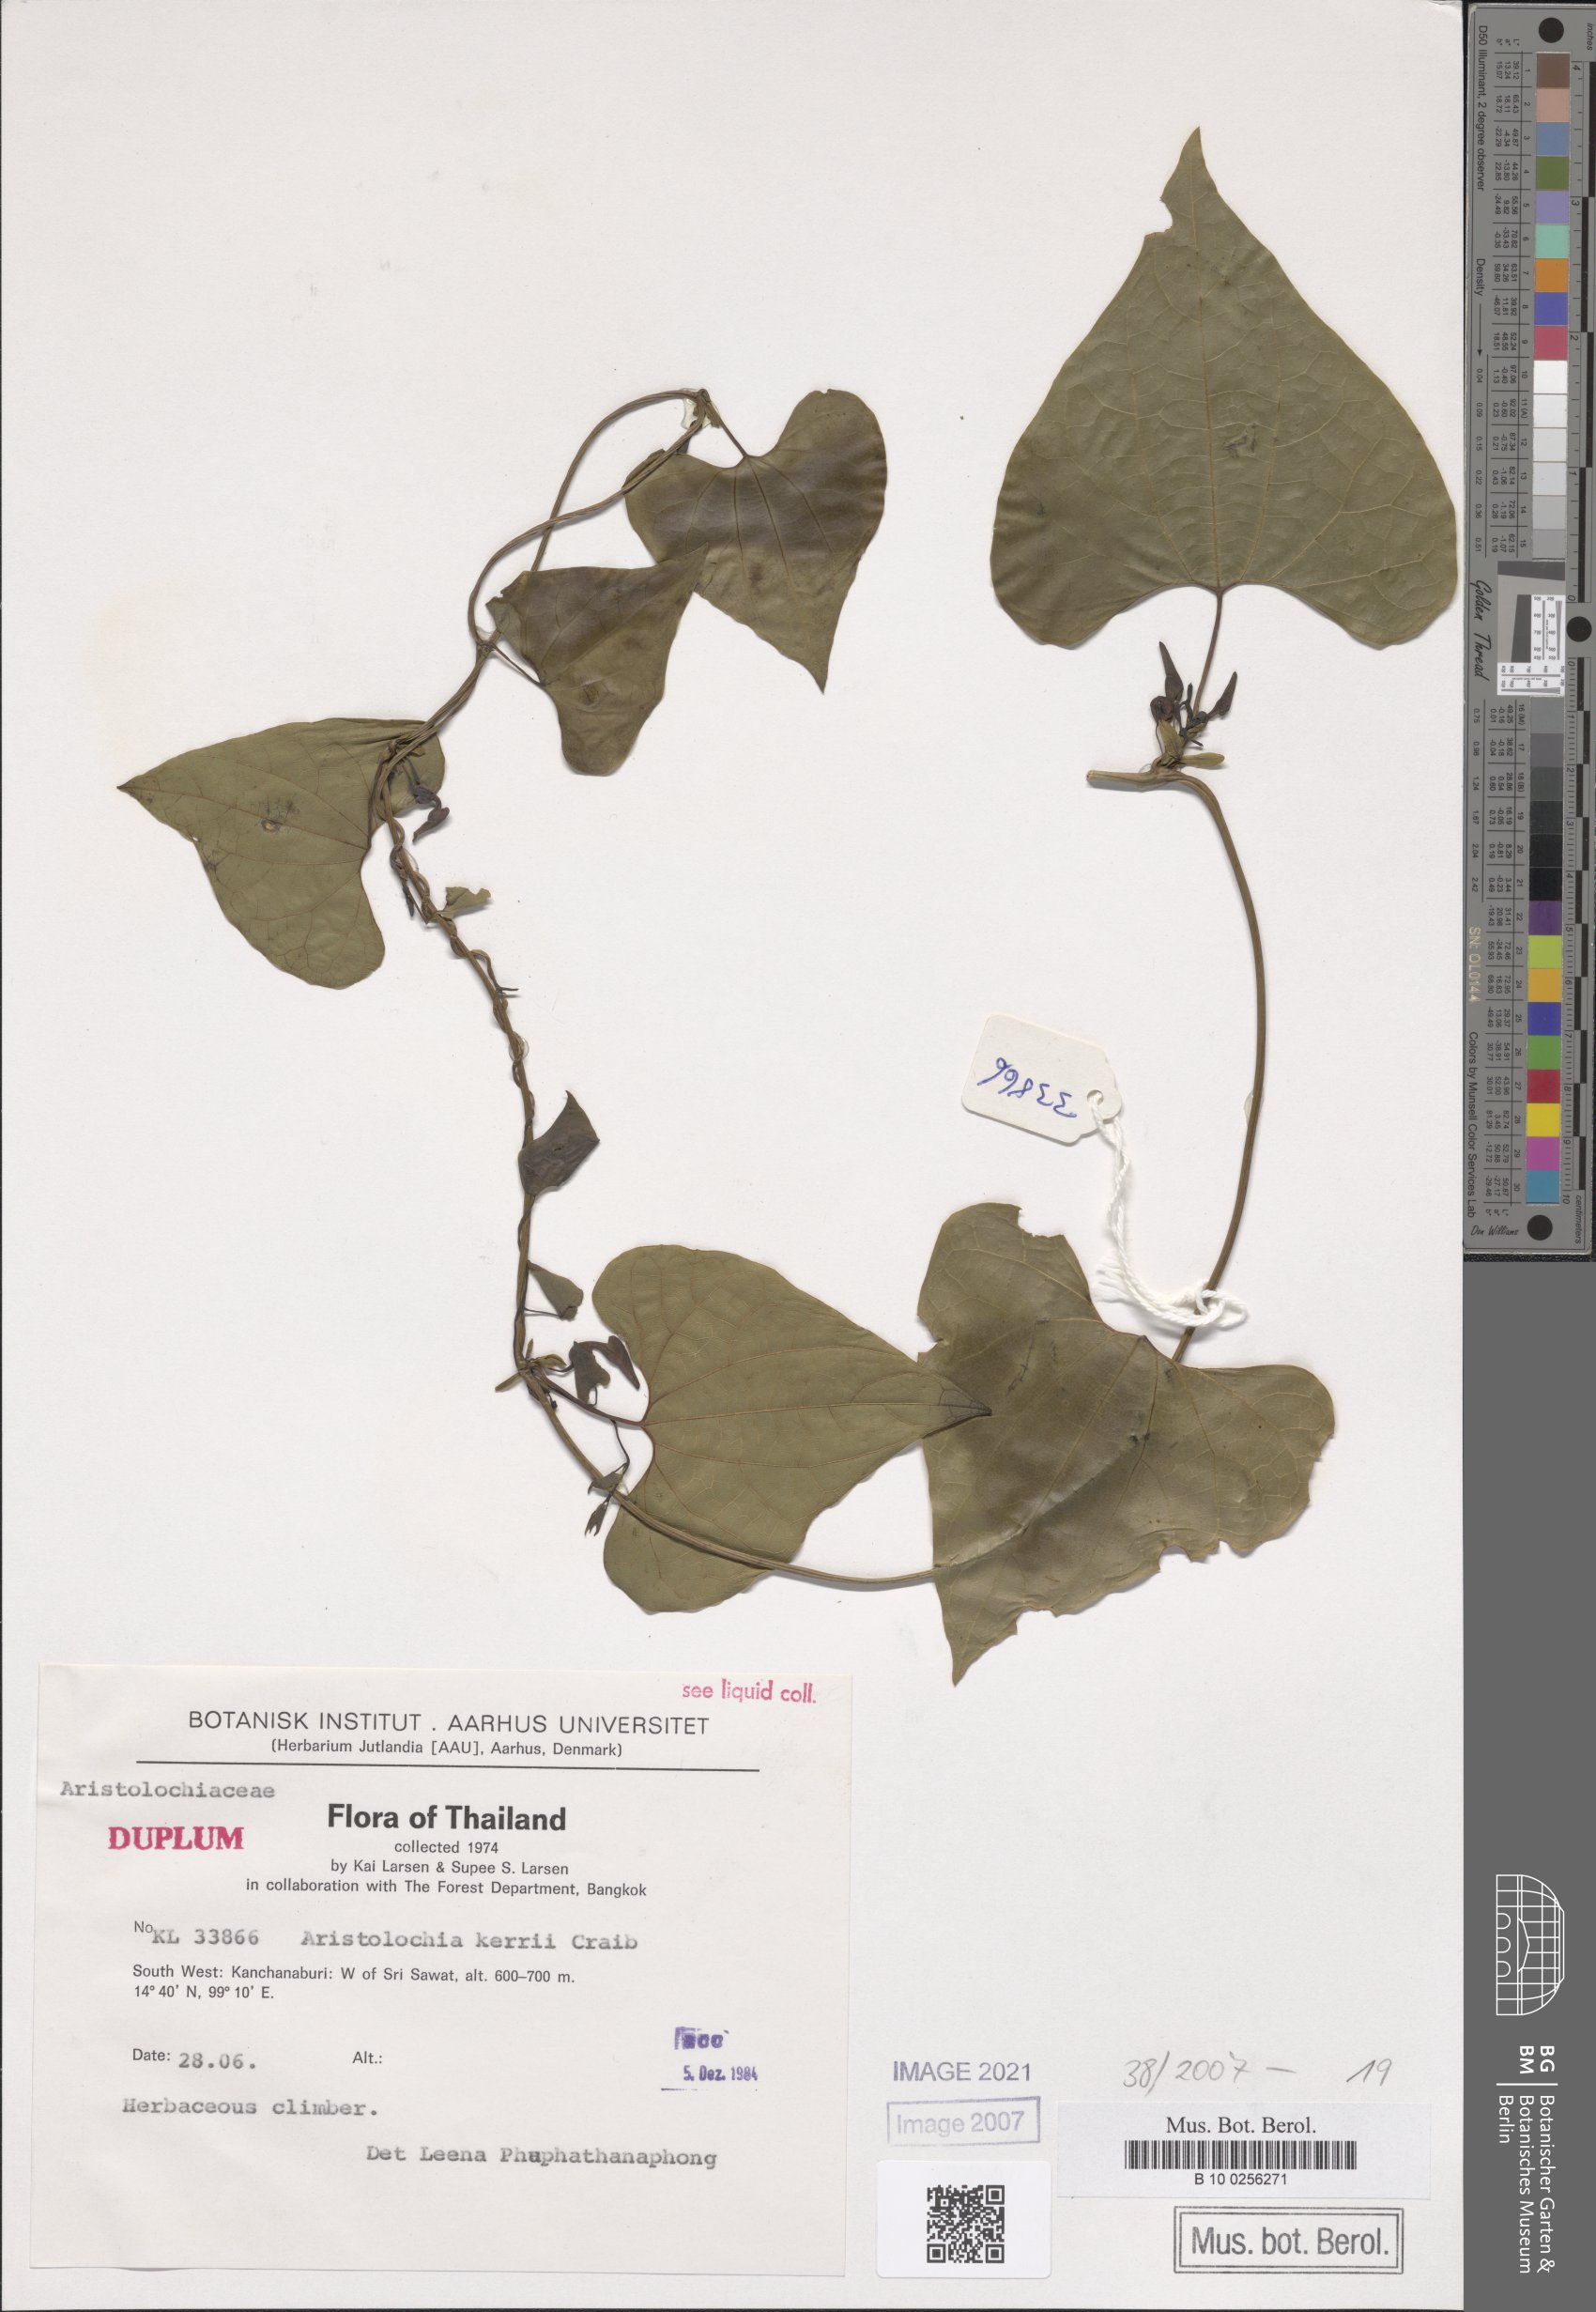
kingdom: Plantae
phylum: Tracheophyta
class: Magnoliopsida
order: Piperales
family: Aristolochiaceae
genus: Aristolochia
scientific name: Aristolochia cambodiana
